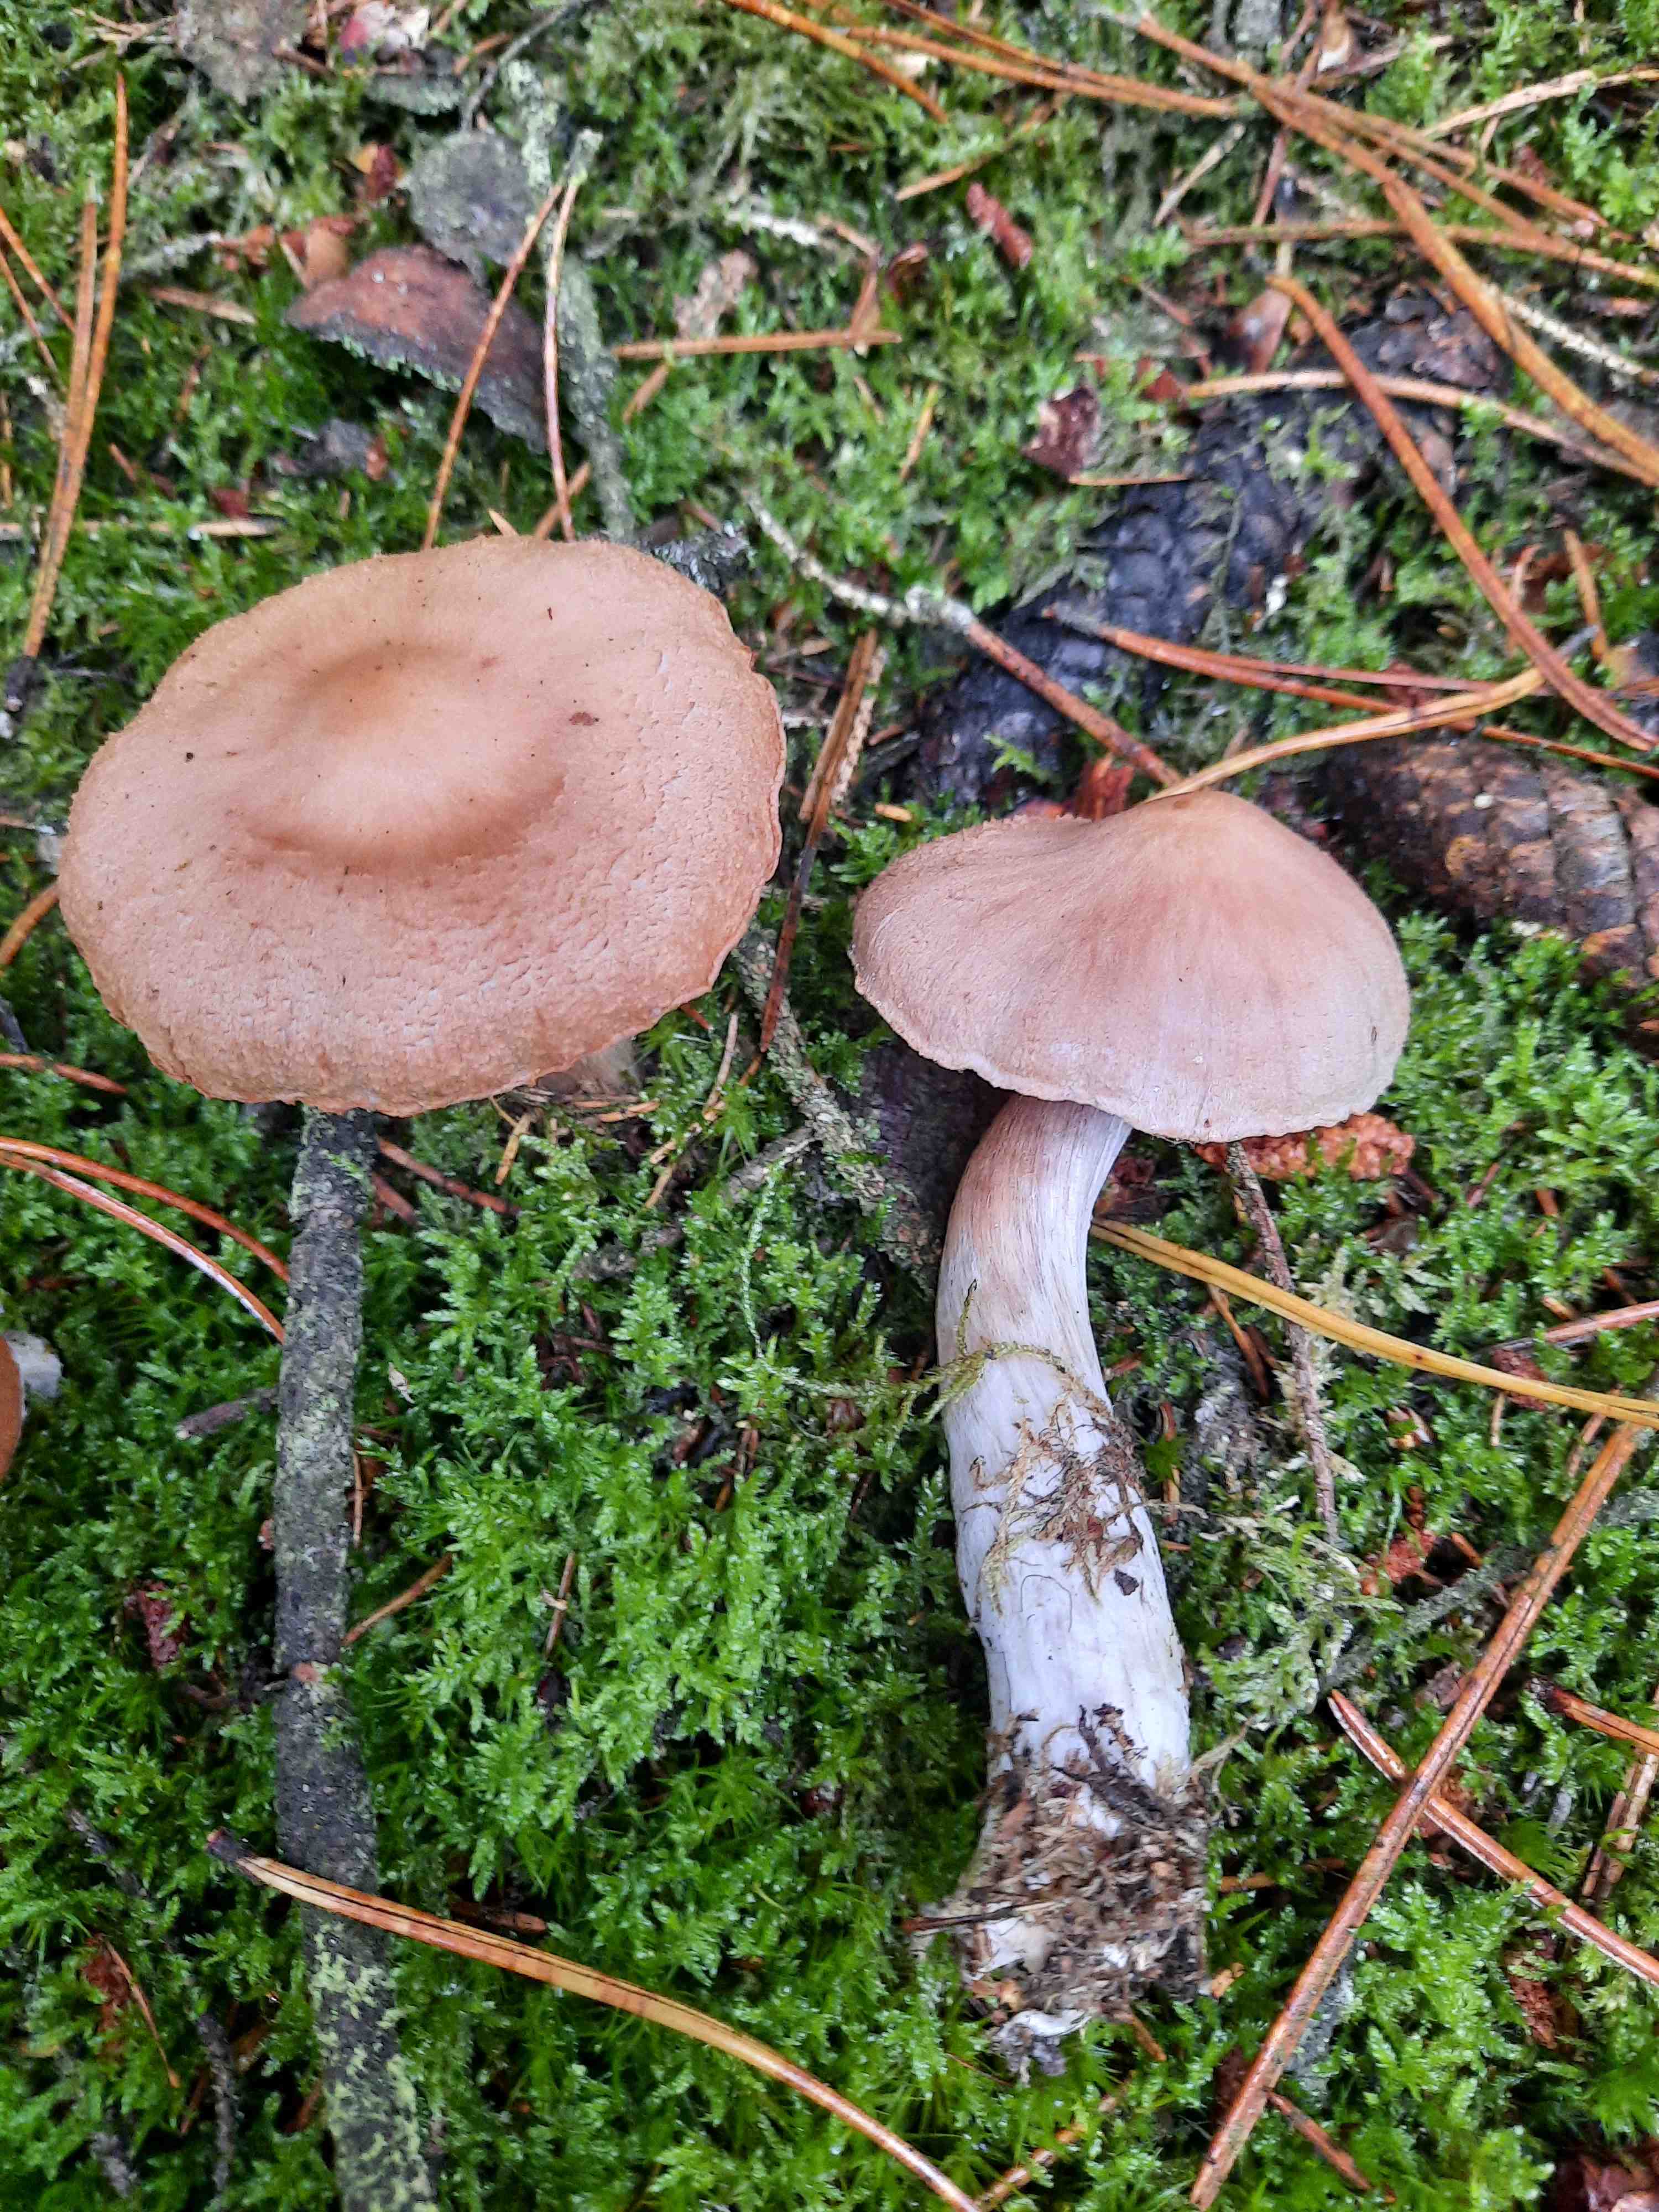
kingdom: Fungi
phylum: Basidiomycota
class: Agaricomycetes
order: Agaricales
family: Cortinariaceae
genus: Cortinarius
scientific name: Cortinarius malachius
